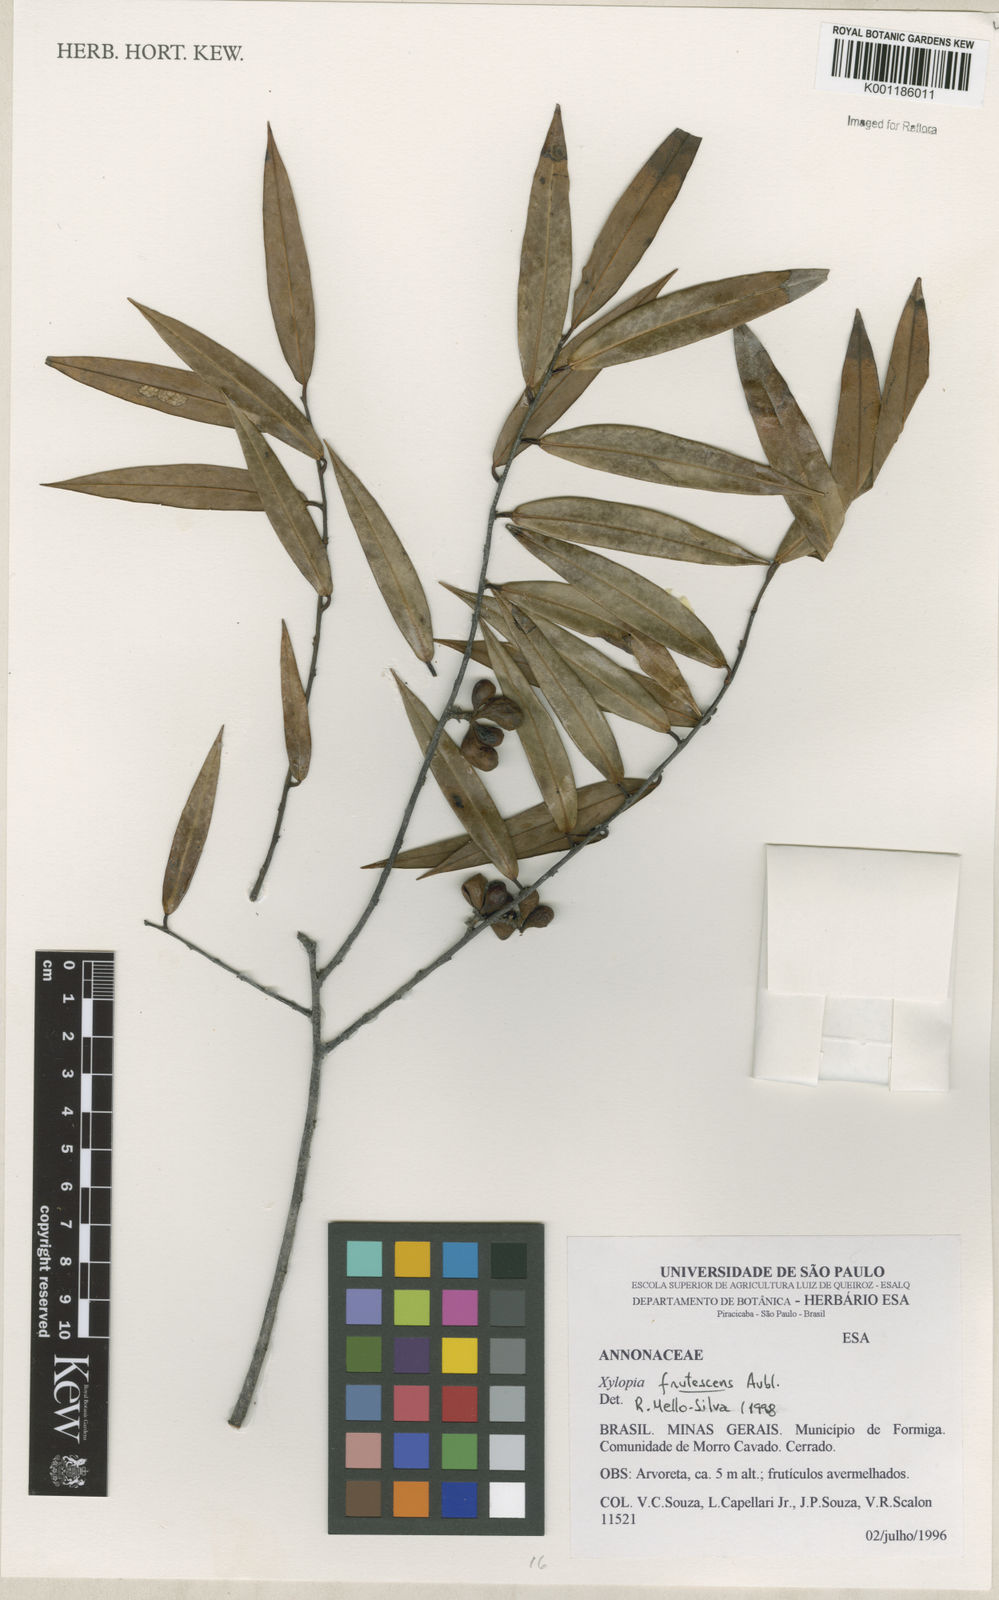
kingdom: Plantae
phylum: Tracheophyta
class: Magnoliopsida
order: Magnoliales
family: Annonaceae
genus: Xylopia
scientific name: Xylopia frutescens
